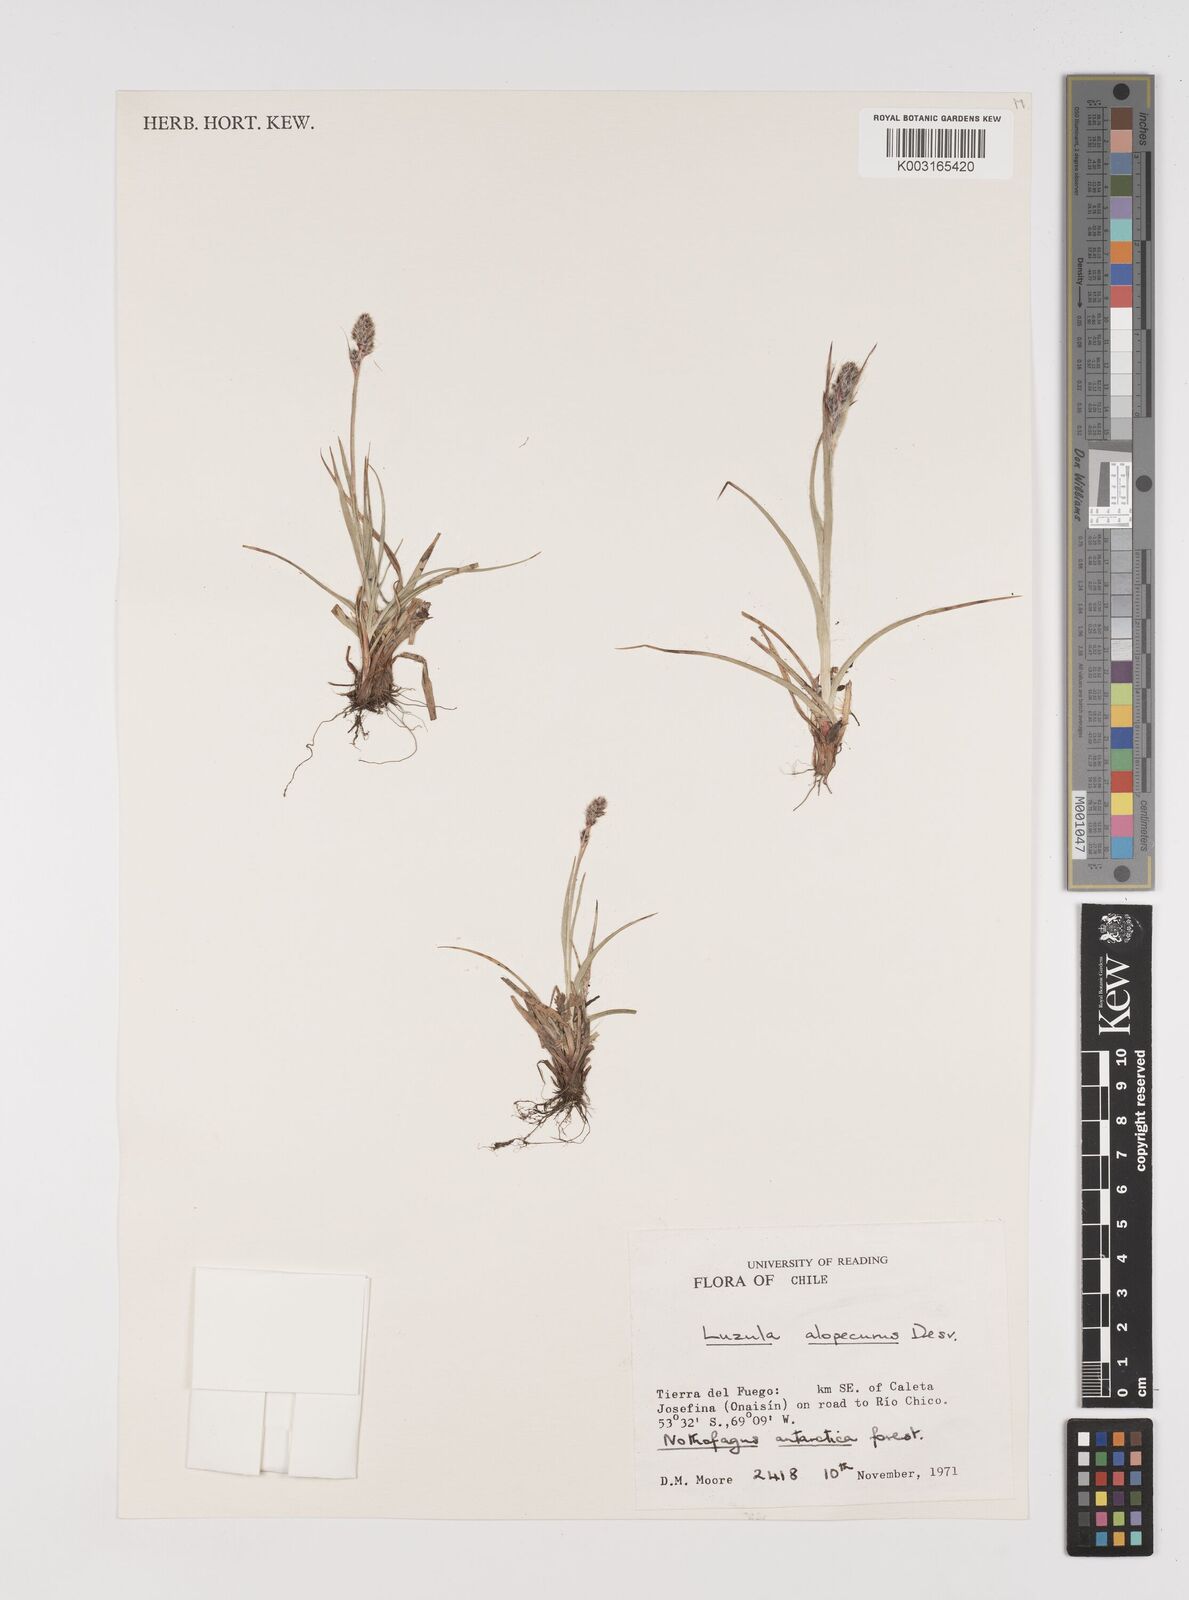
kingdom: Plantae
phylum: Tracheophyta
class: Liliopsida
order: Poales
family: Juncaceae
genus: Luzula
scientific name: Luzula alopecurus
